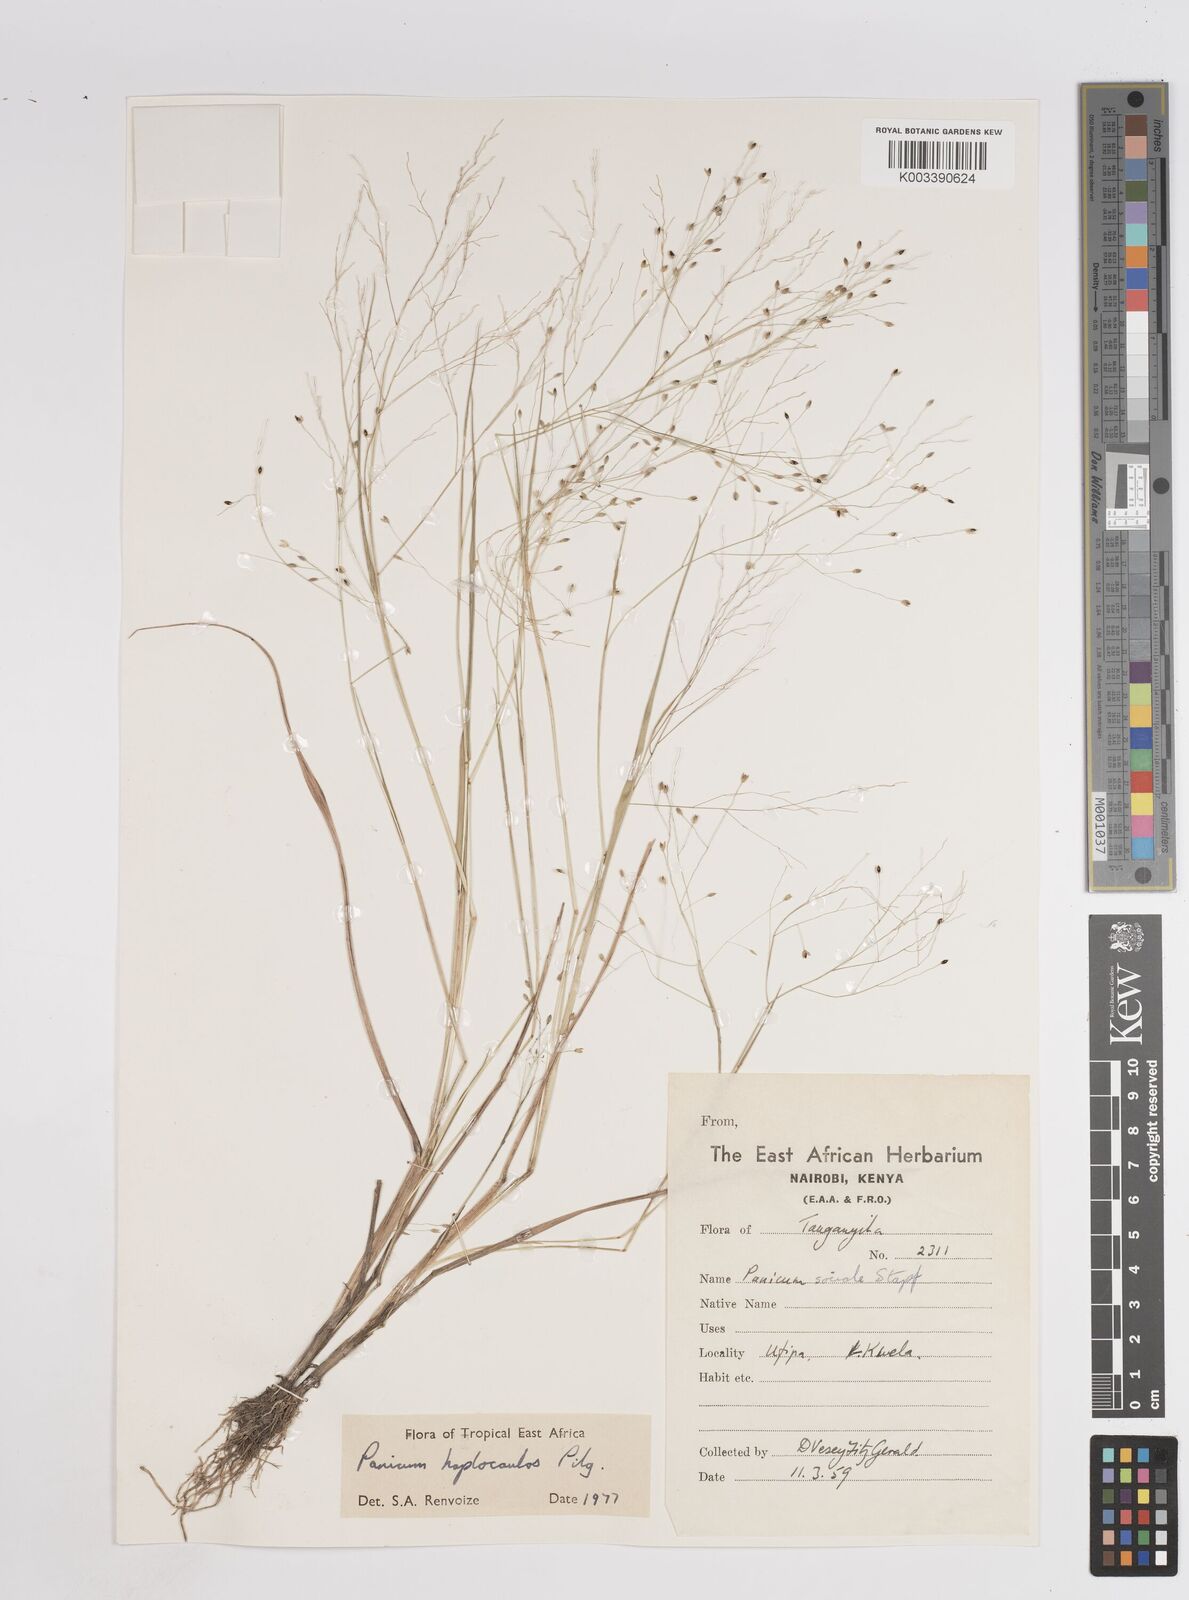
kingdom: Plantae
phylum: Tracheophyta
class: Liliopsida
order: Poales
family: Poaceae
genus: Panicum
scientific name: Panicum haplocaulos
